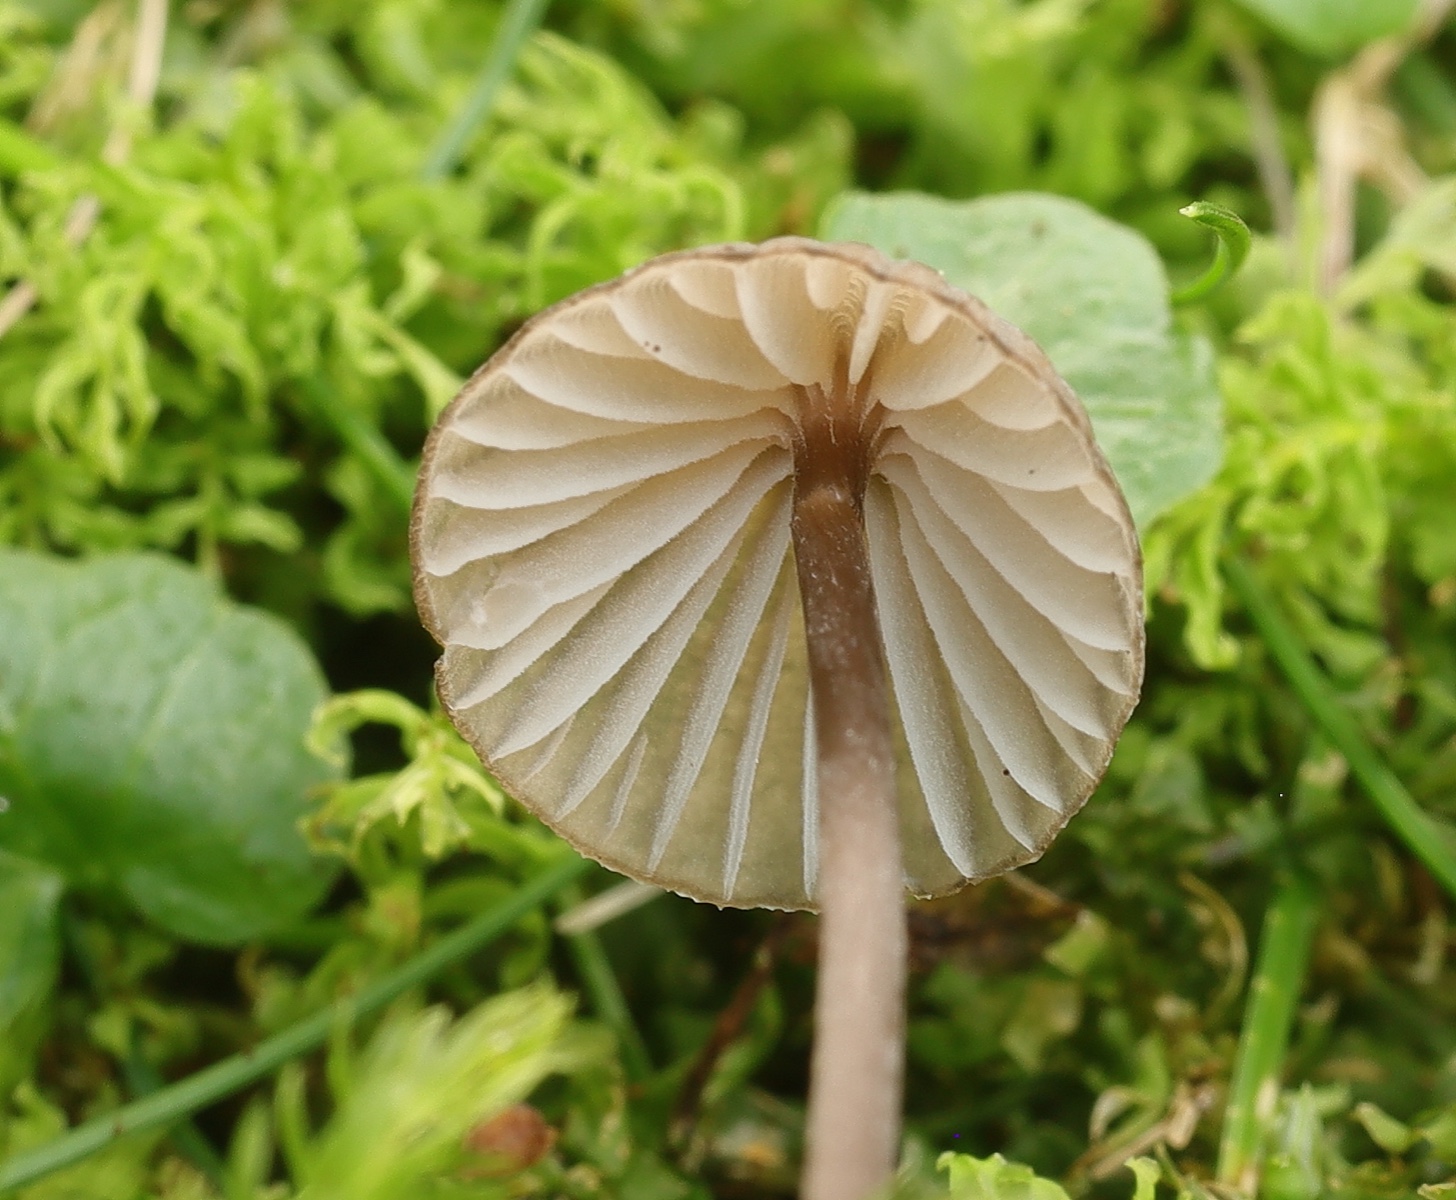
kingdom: Fungi
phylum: Basidiomycota
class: Agaricomycetes
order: Agaricales
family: Mycenaceae
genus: Mycena
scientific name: Mycena galopus
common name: hvidmælket huesvamp
